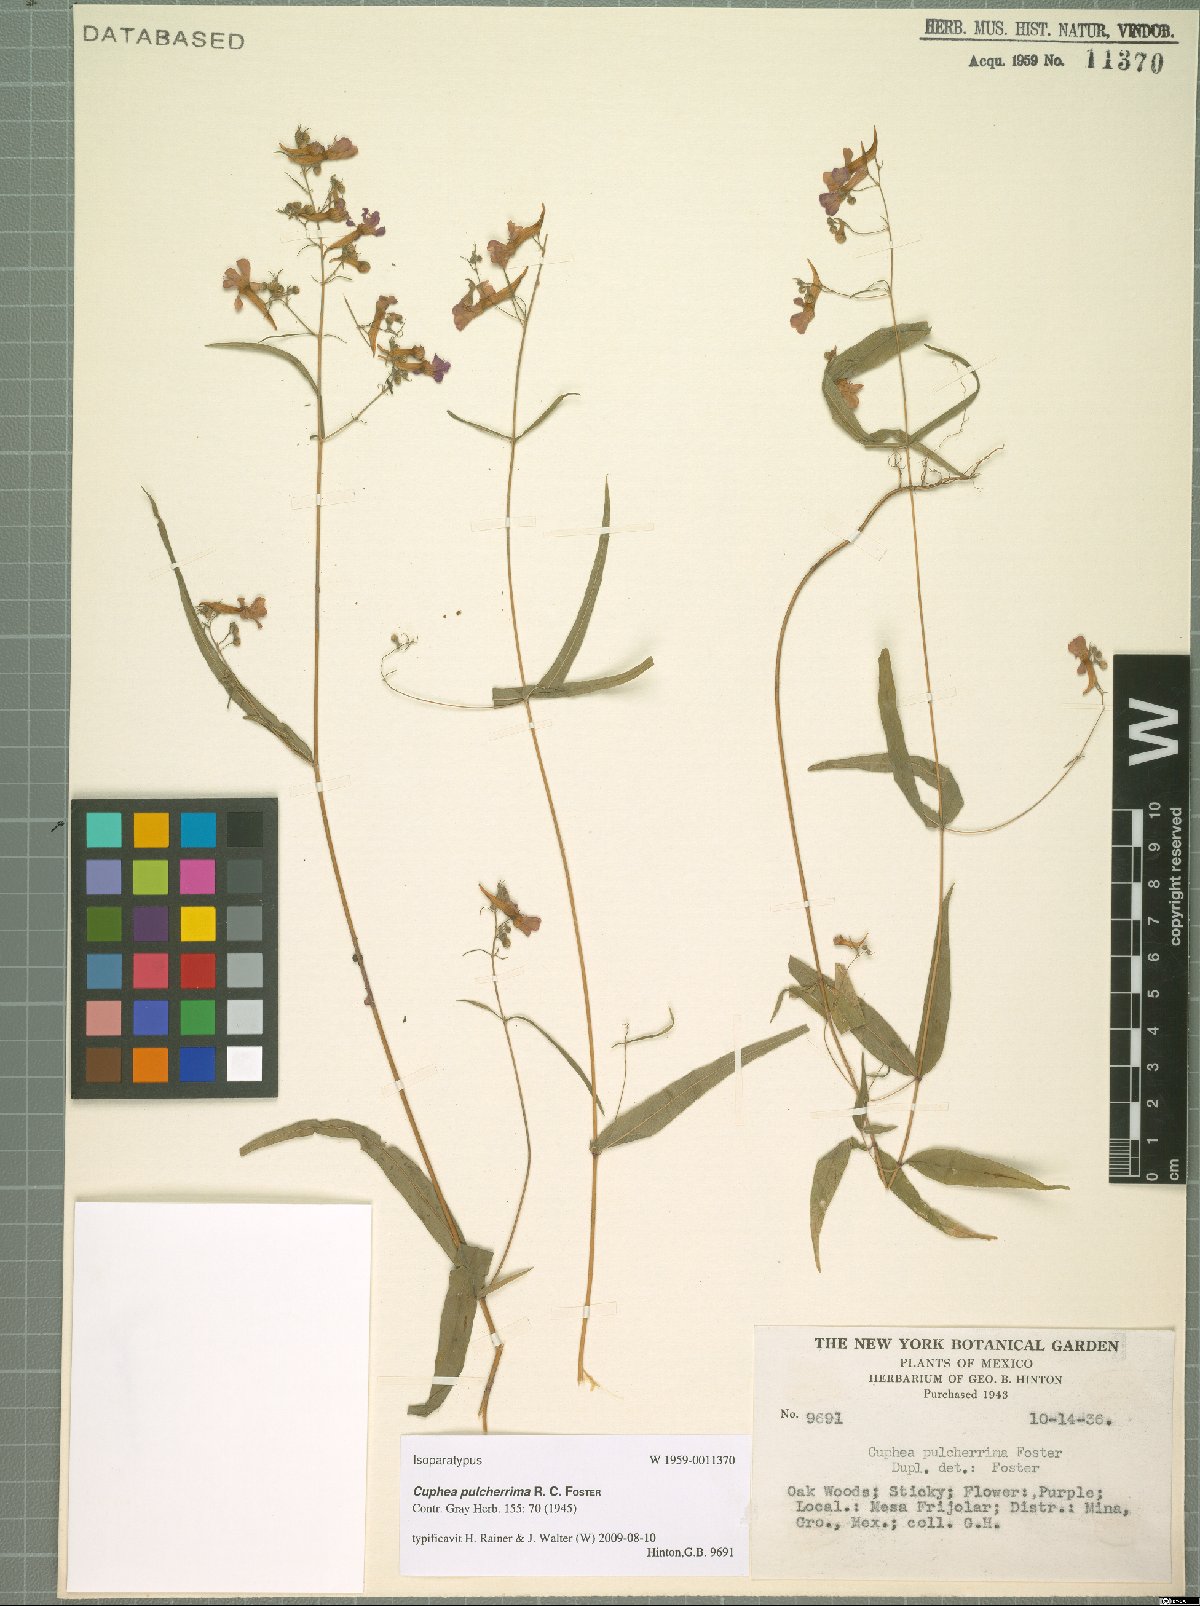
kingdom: Plantae
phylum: Tracheophyta
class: Magnoliopsida
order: Myrtales
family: Lythraceae
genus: Cuphea
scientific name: Cuphea avigera
